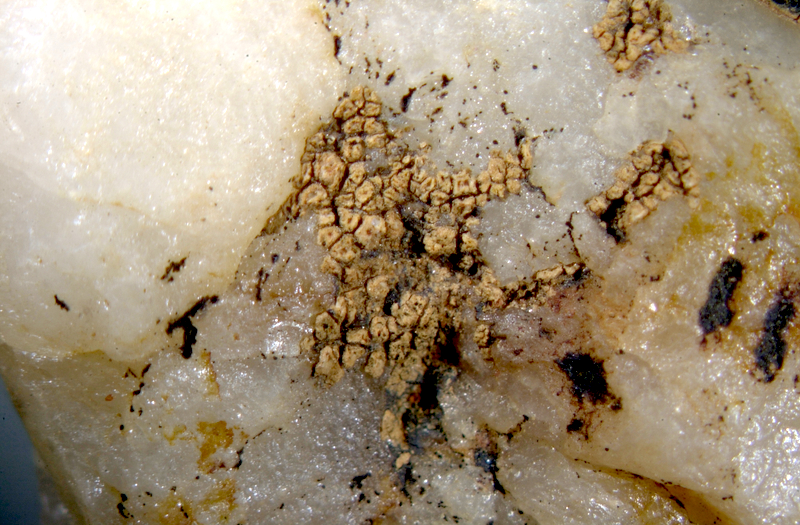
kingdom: Fungi
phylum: Ascomycota
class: Lecanoromycetes
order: Teloschistales
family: Teloschistaceae
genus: Caloplaca
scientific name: Caloplaca
